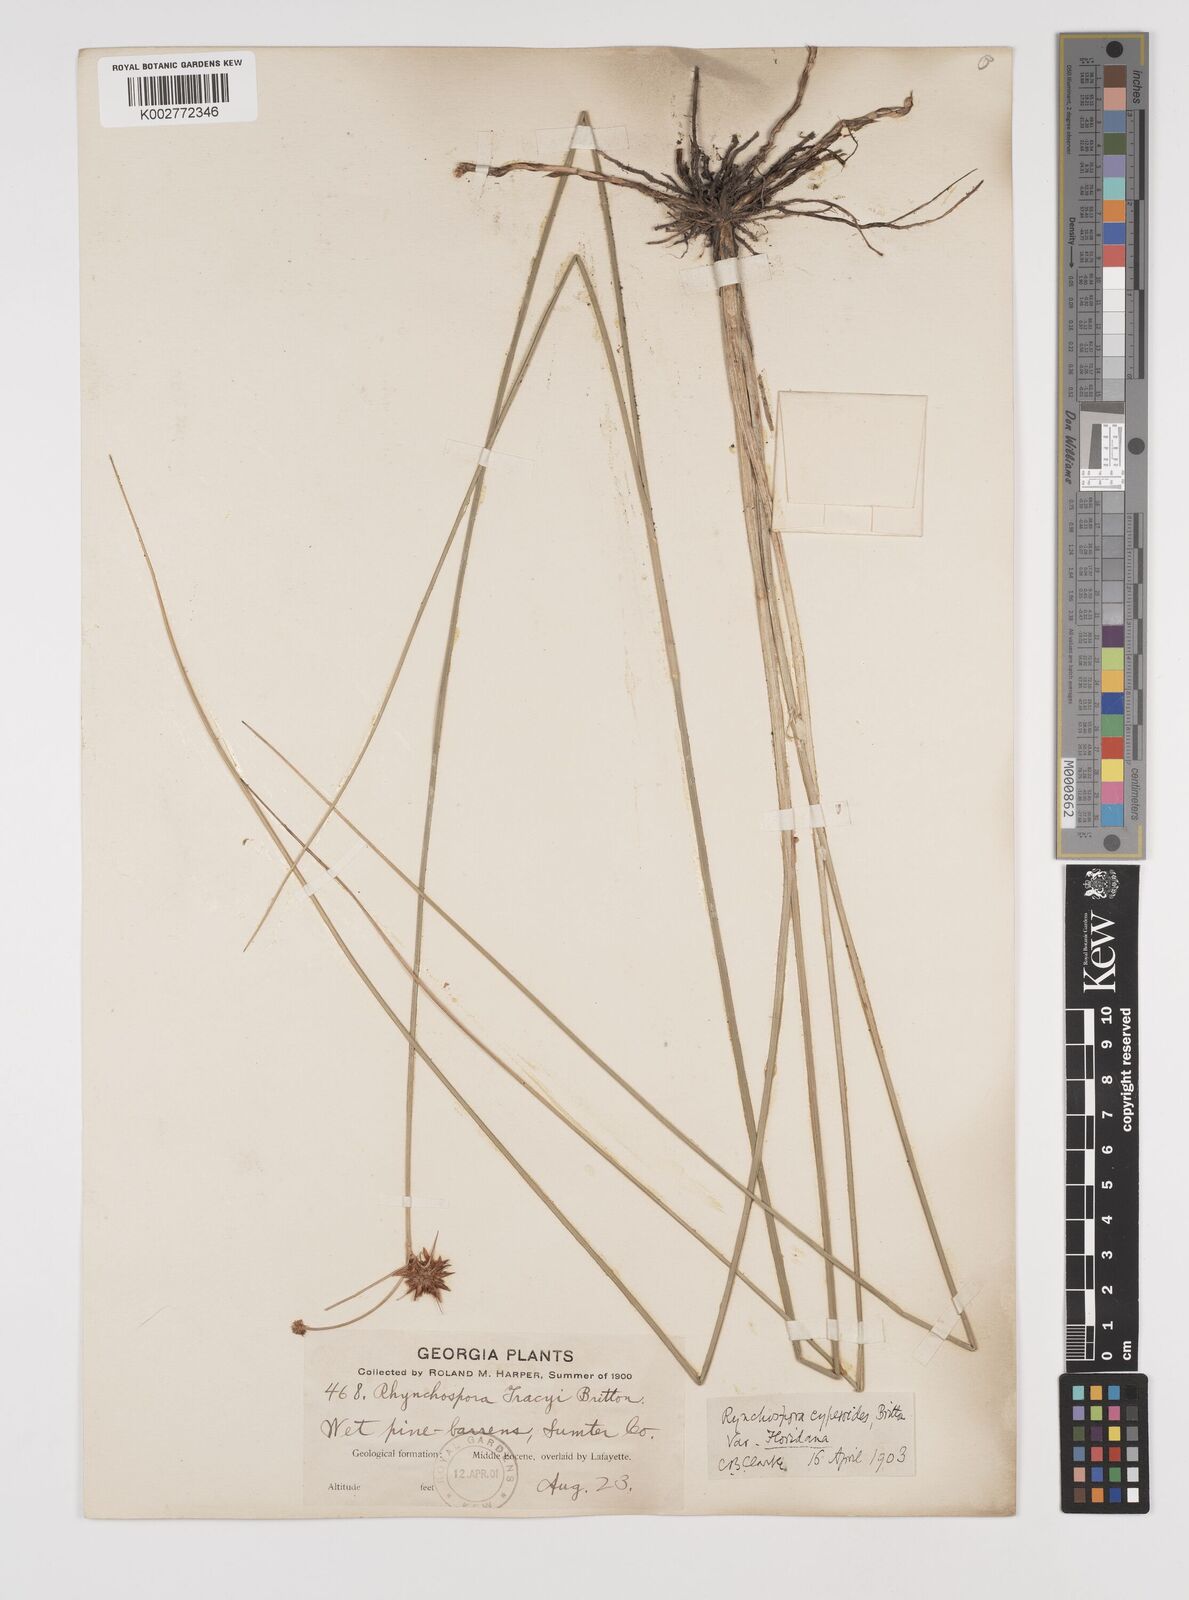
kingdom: Plantae
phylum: Tracheophyta
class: Liliopsida
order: Poales
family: Cyperaceae
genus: Rhynchospora
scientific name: Rhynchospora holoschoenoides
